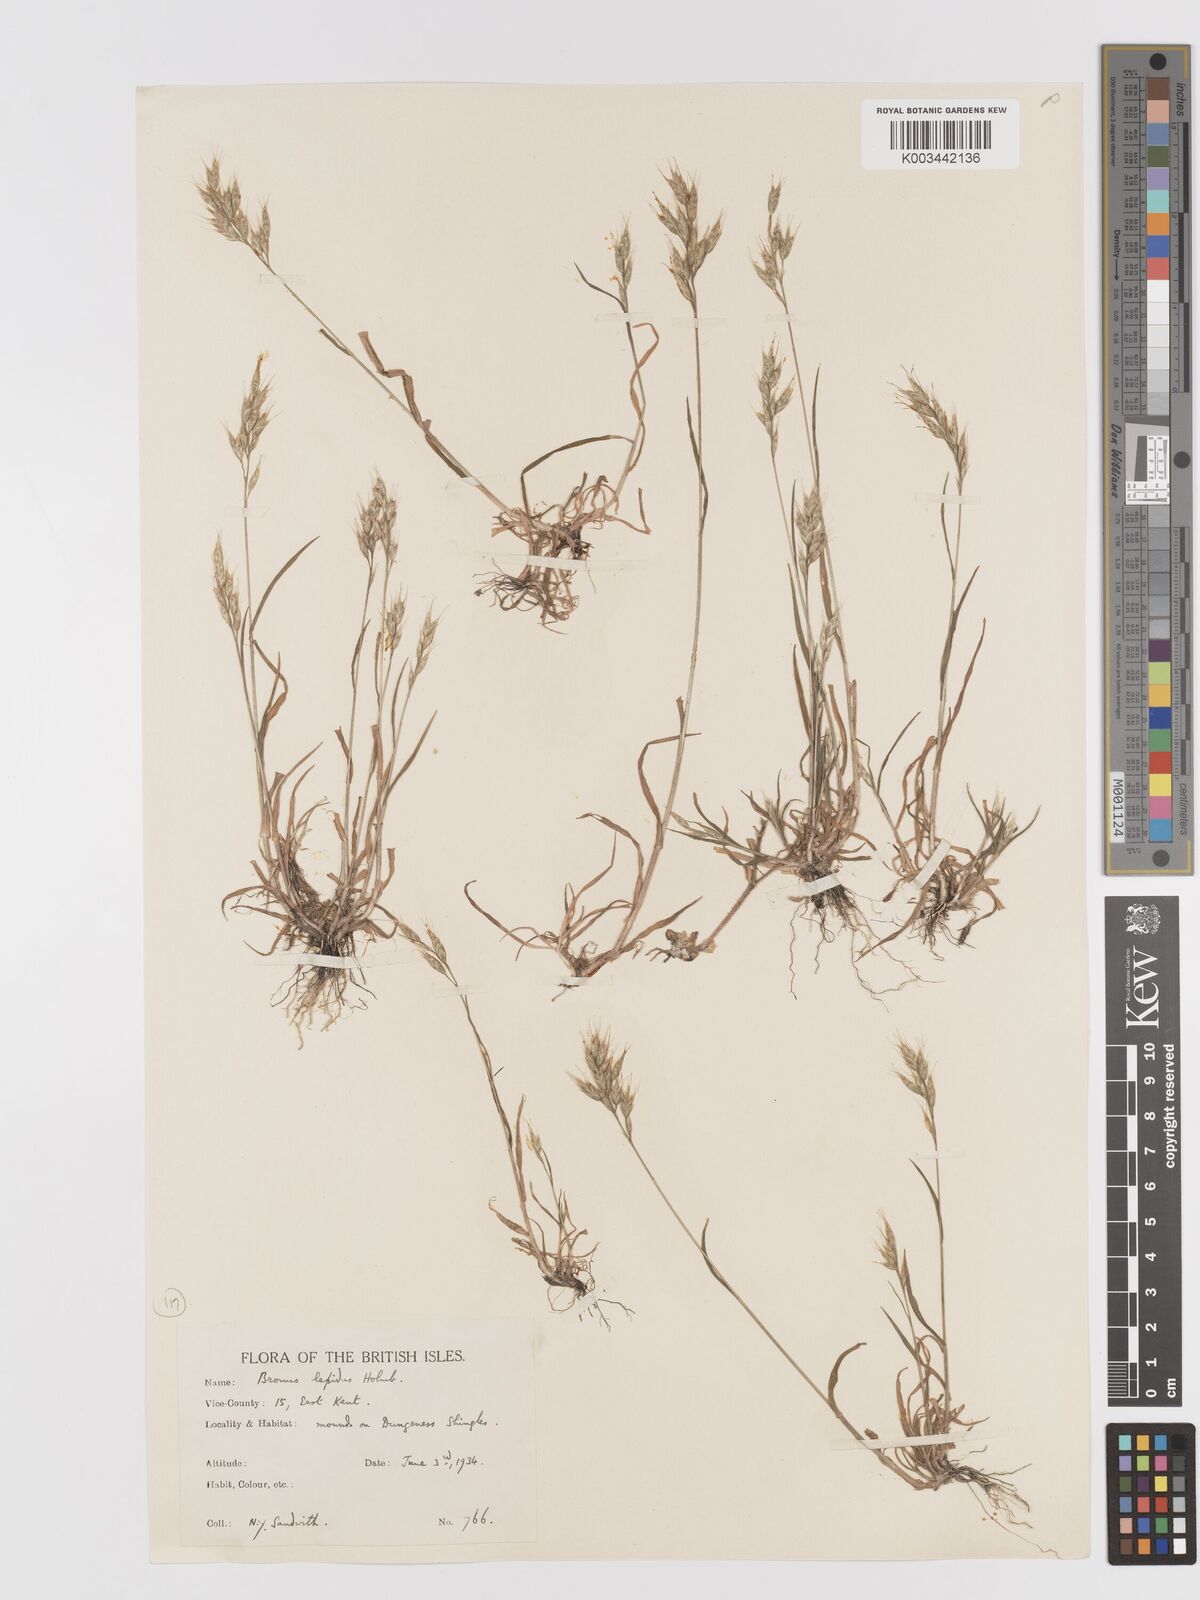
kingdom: Plantae
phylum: Tracheophyta
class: Liliopsida
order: Poales
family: Poaceae
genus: Bromus
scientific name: Bromus lepidus
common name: Slender soft-brome
